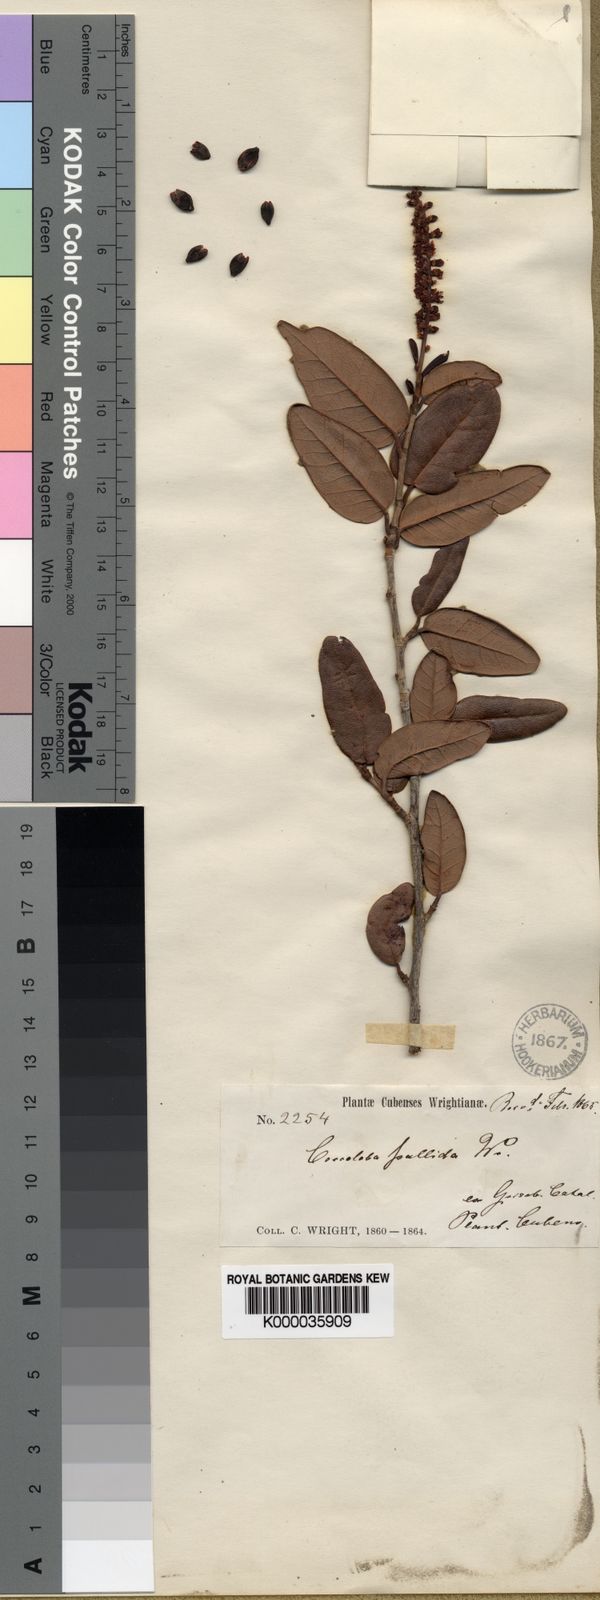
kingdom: Plantae
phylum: Tracheophyta
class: Magnoliopsida
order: Caryophyllales
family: Polygonaceae
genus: Coccoloba
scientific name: Coccoloba
